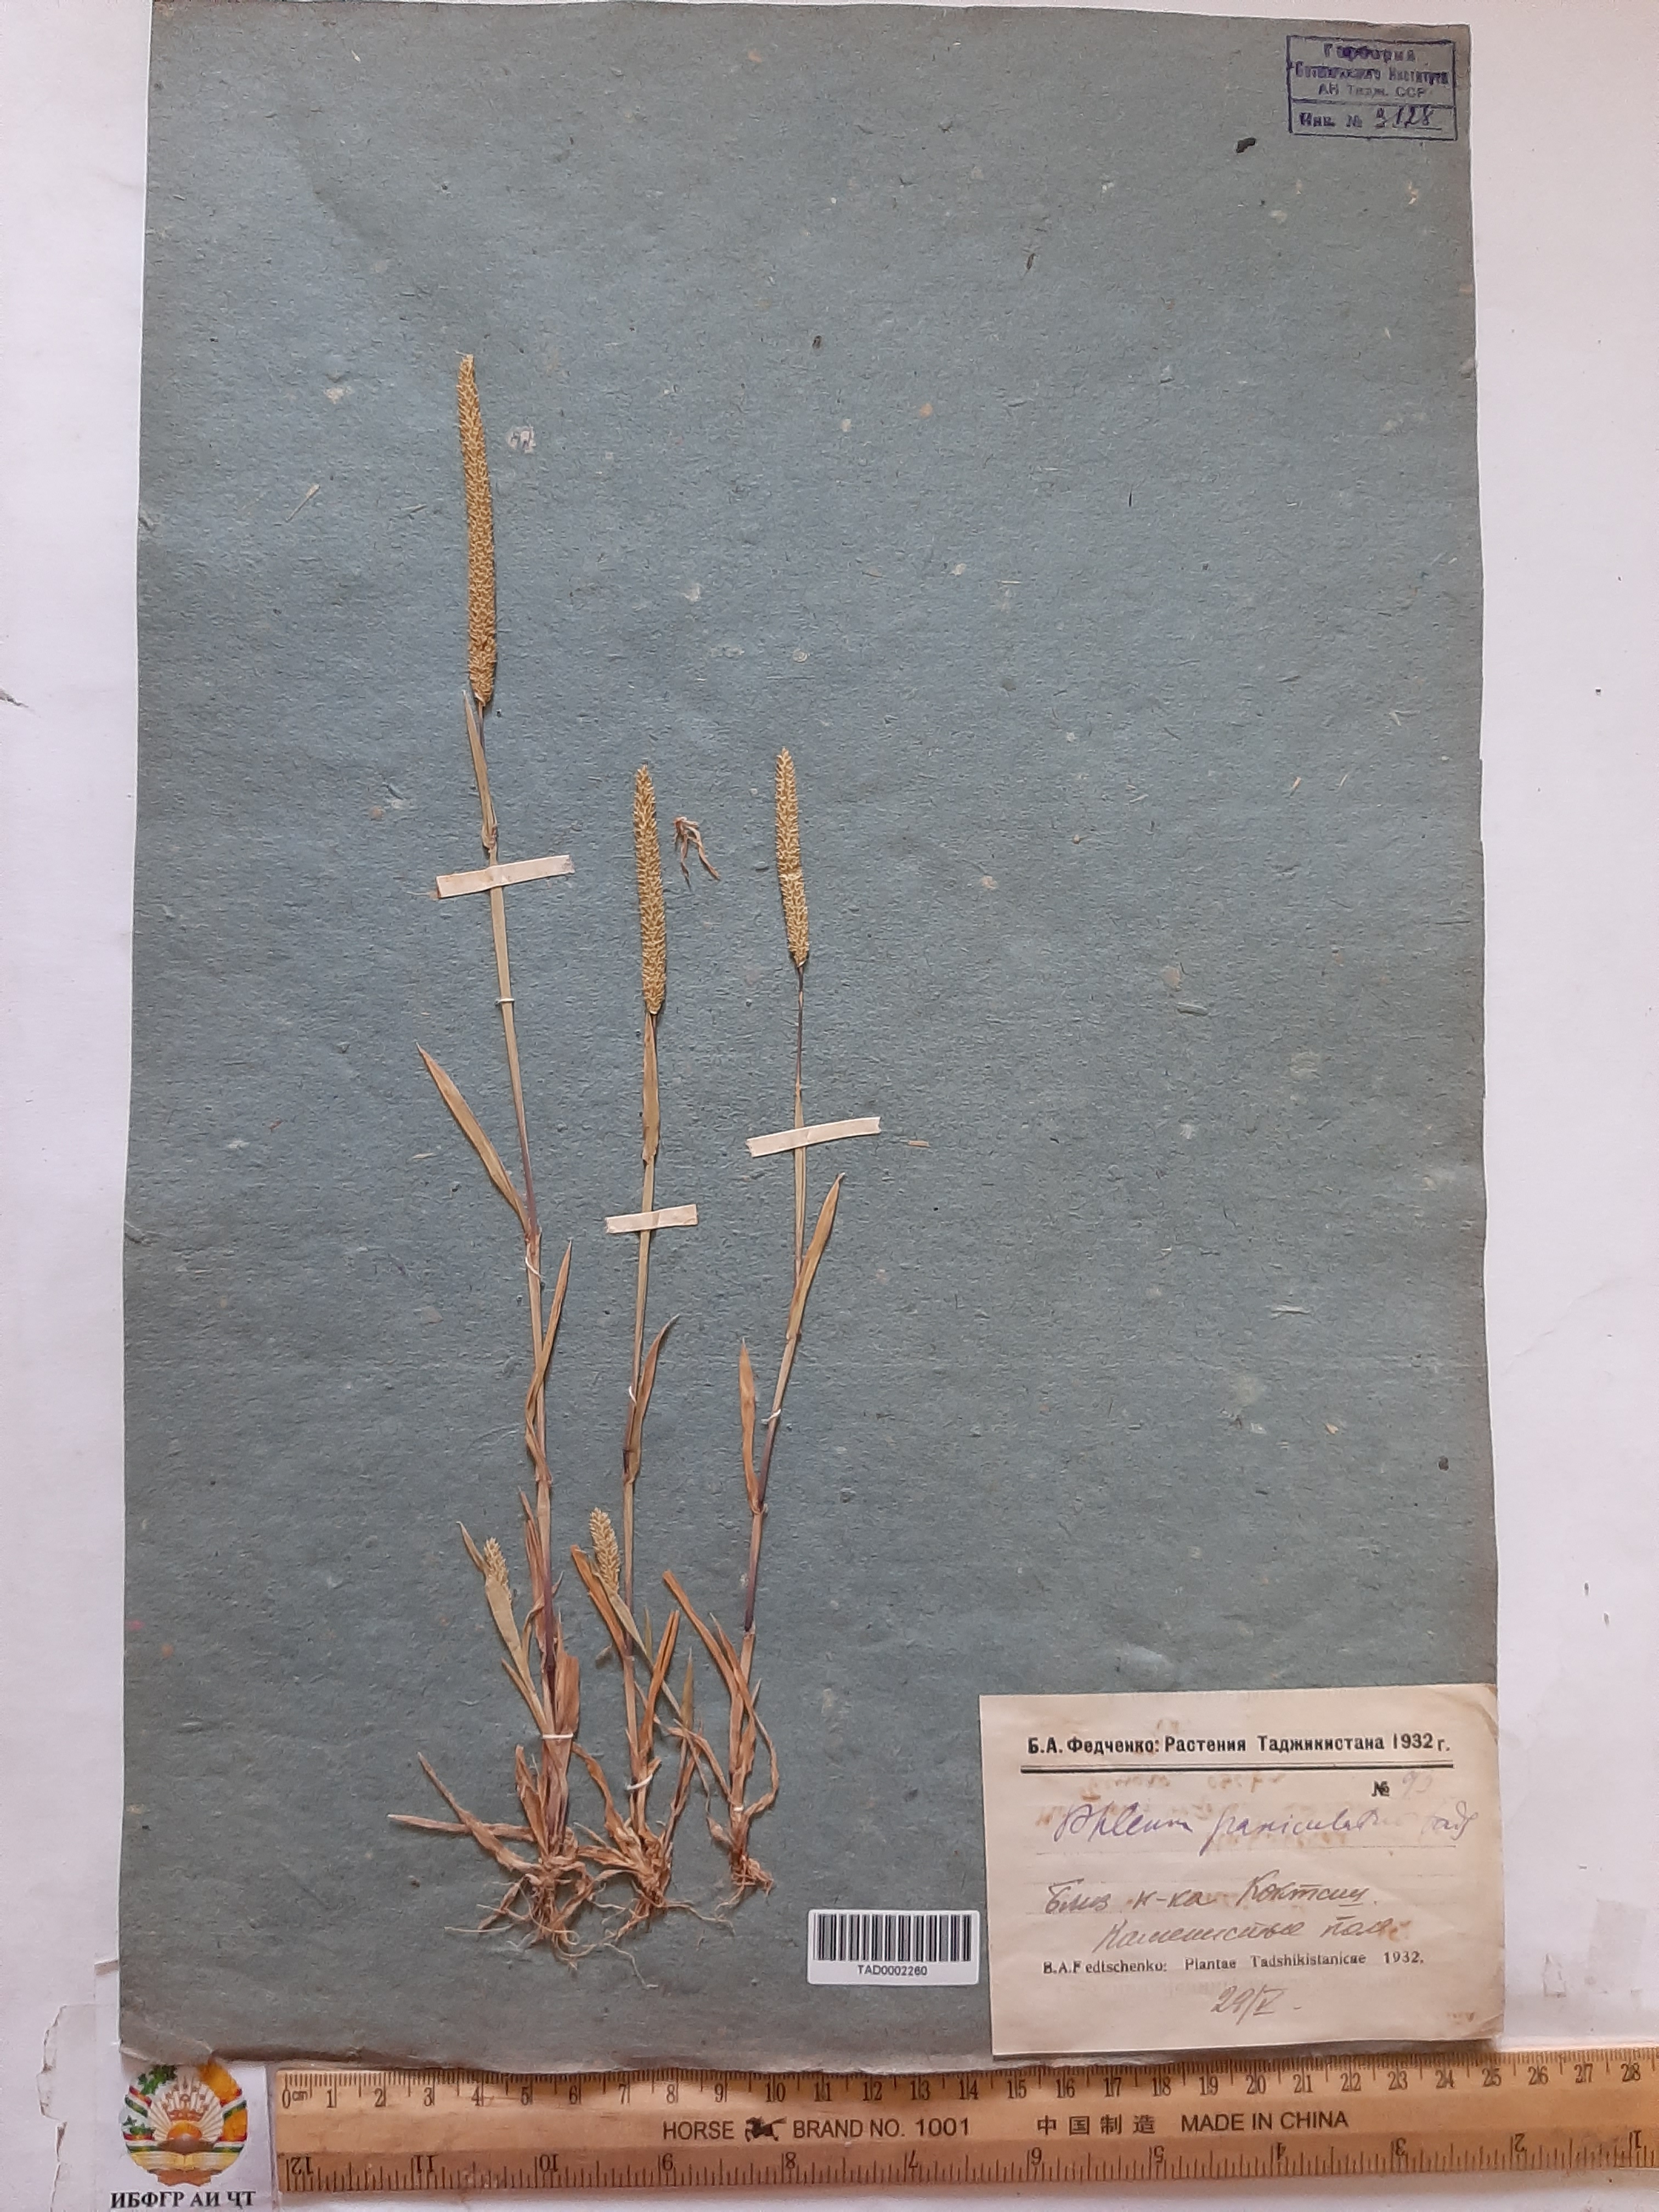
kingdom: Plantae
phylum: Tracheophyta
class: Liliopsida
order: Poales
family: Poaceae
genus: Phleum
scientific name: Phleum paniculatum
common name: British timothy
